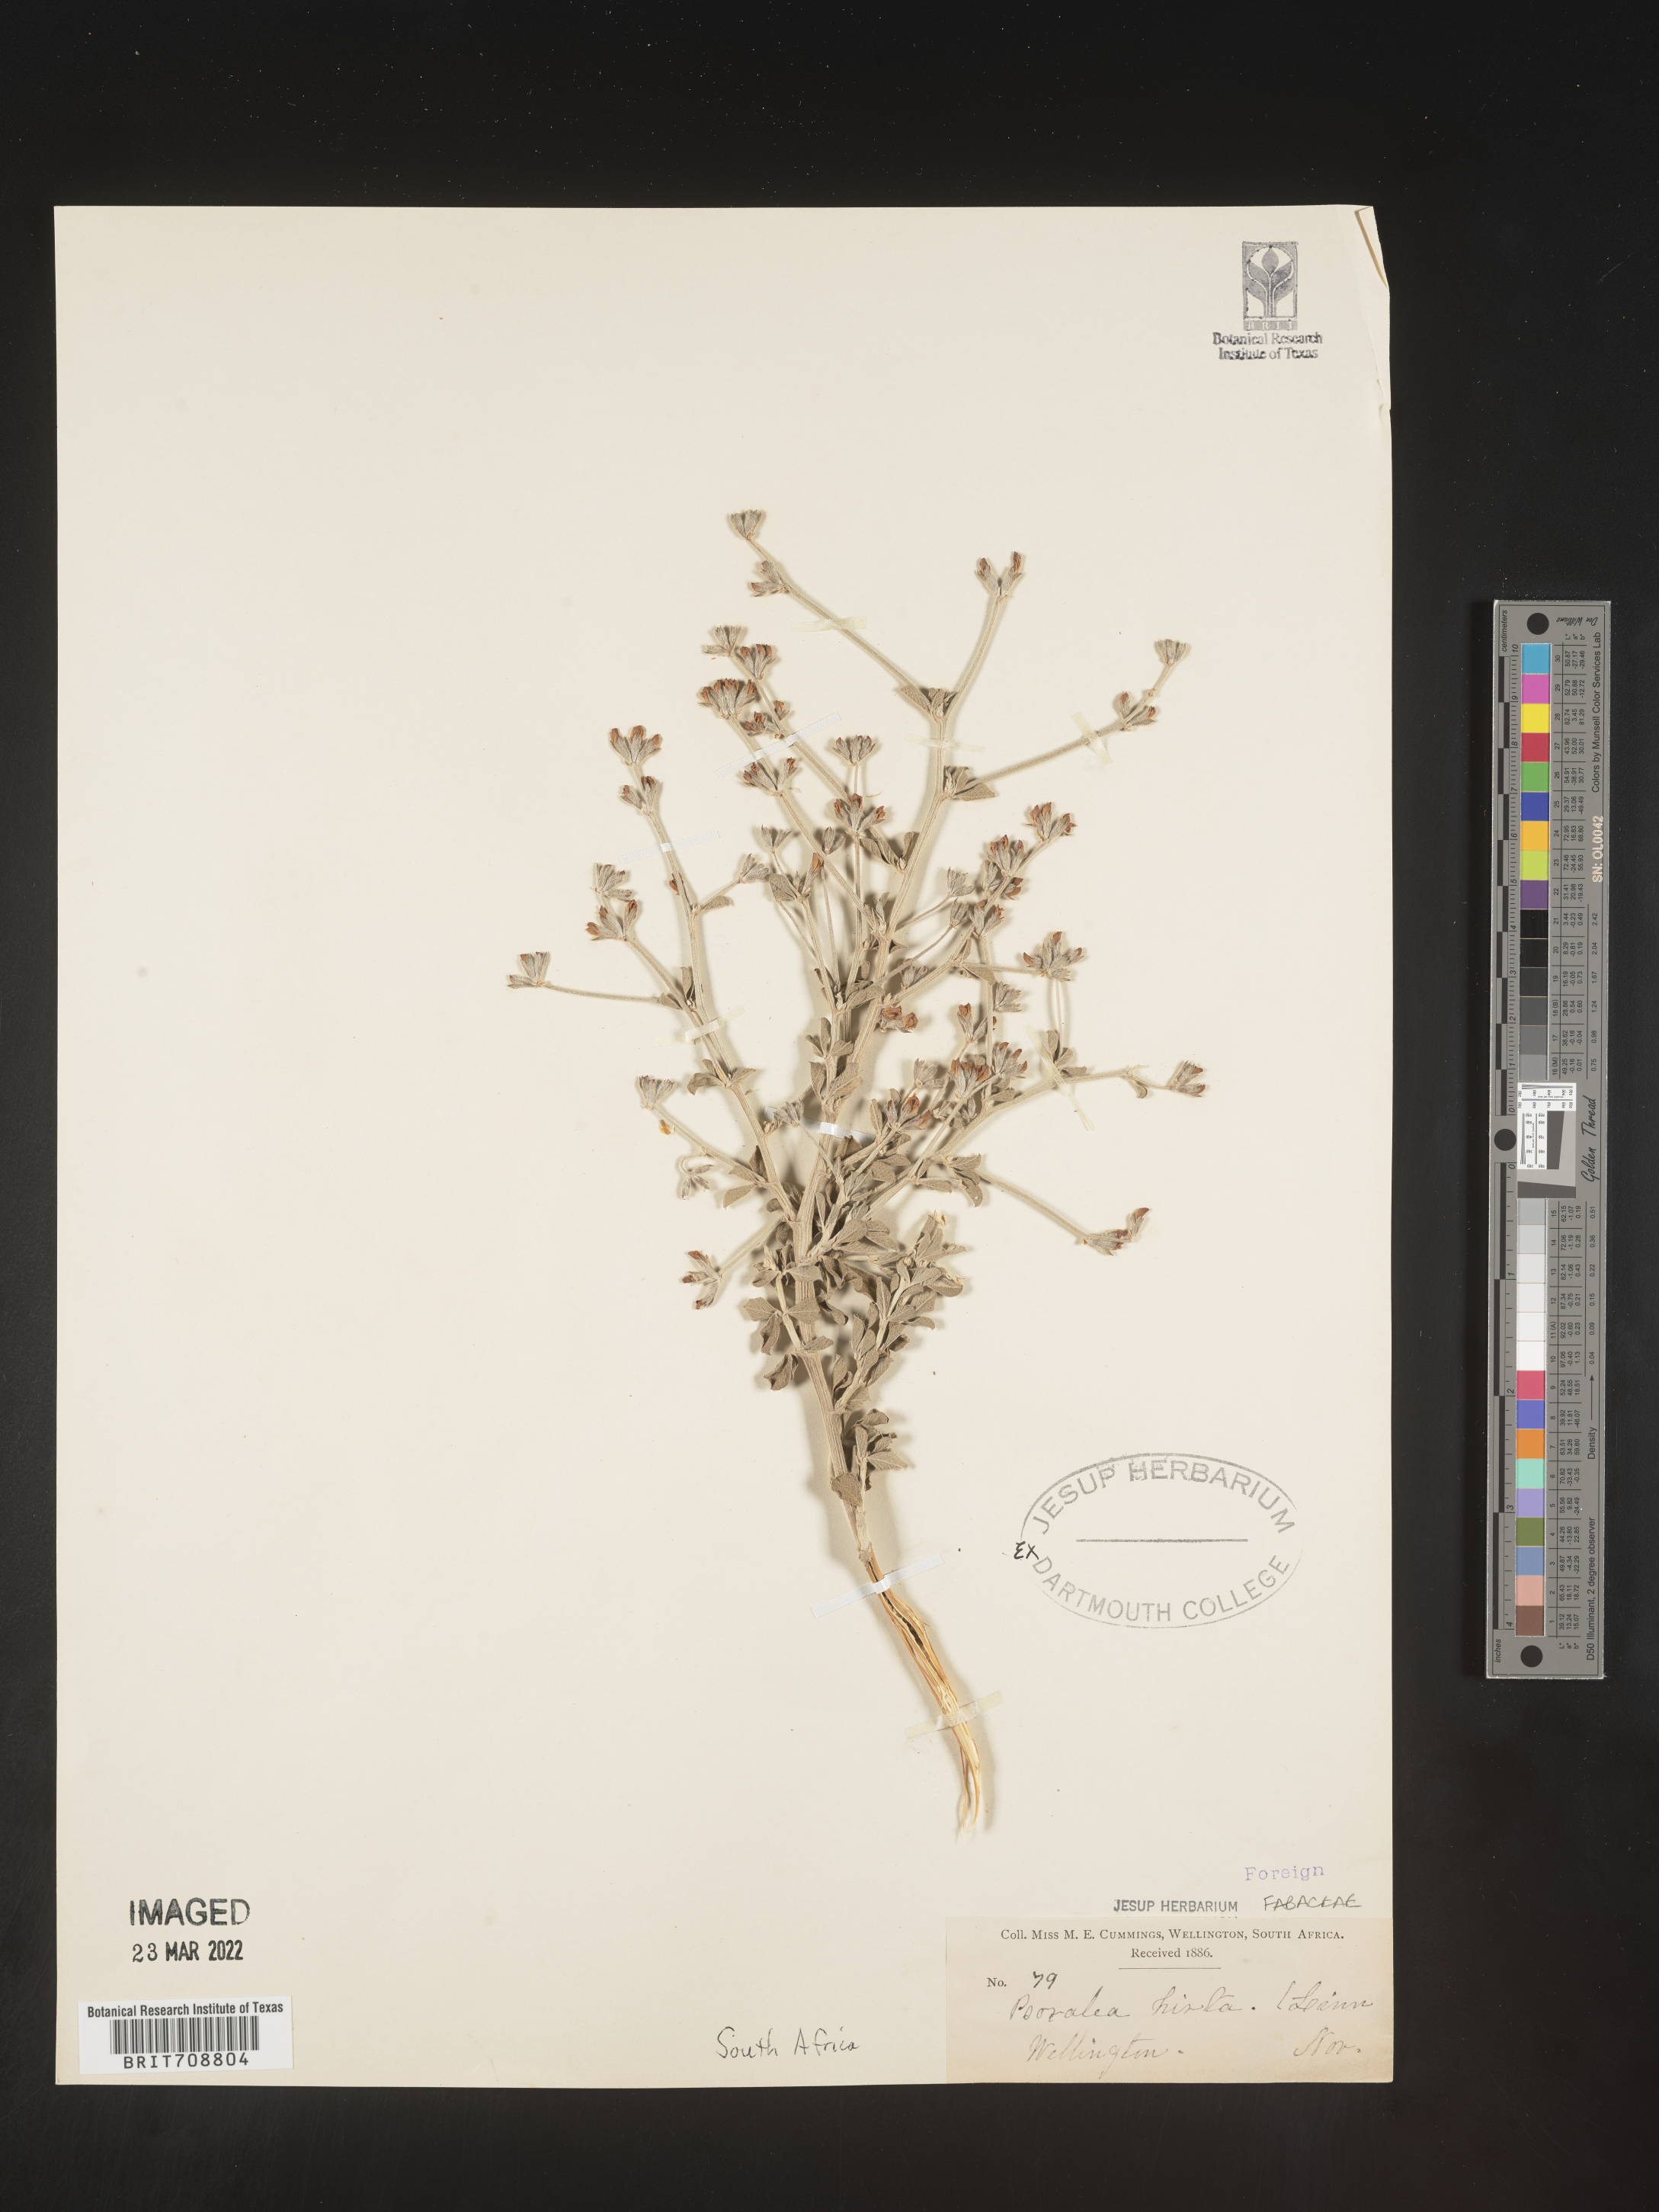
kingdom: Plantae
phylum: Tracheophyta
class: Magnoliopsida
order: Fabales
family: Fabaceae
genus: Psoralea
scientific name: Psoralea
